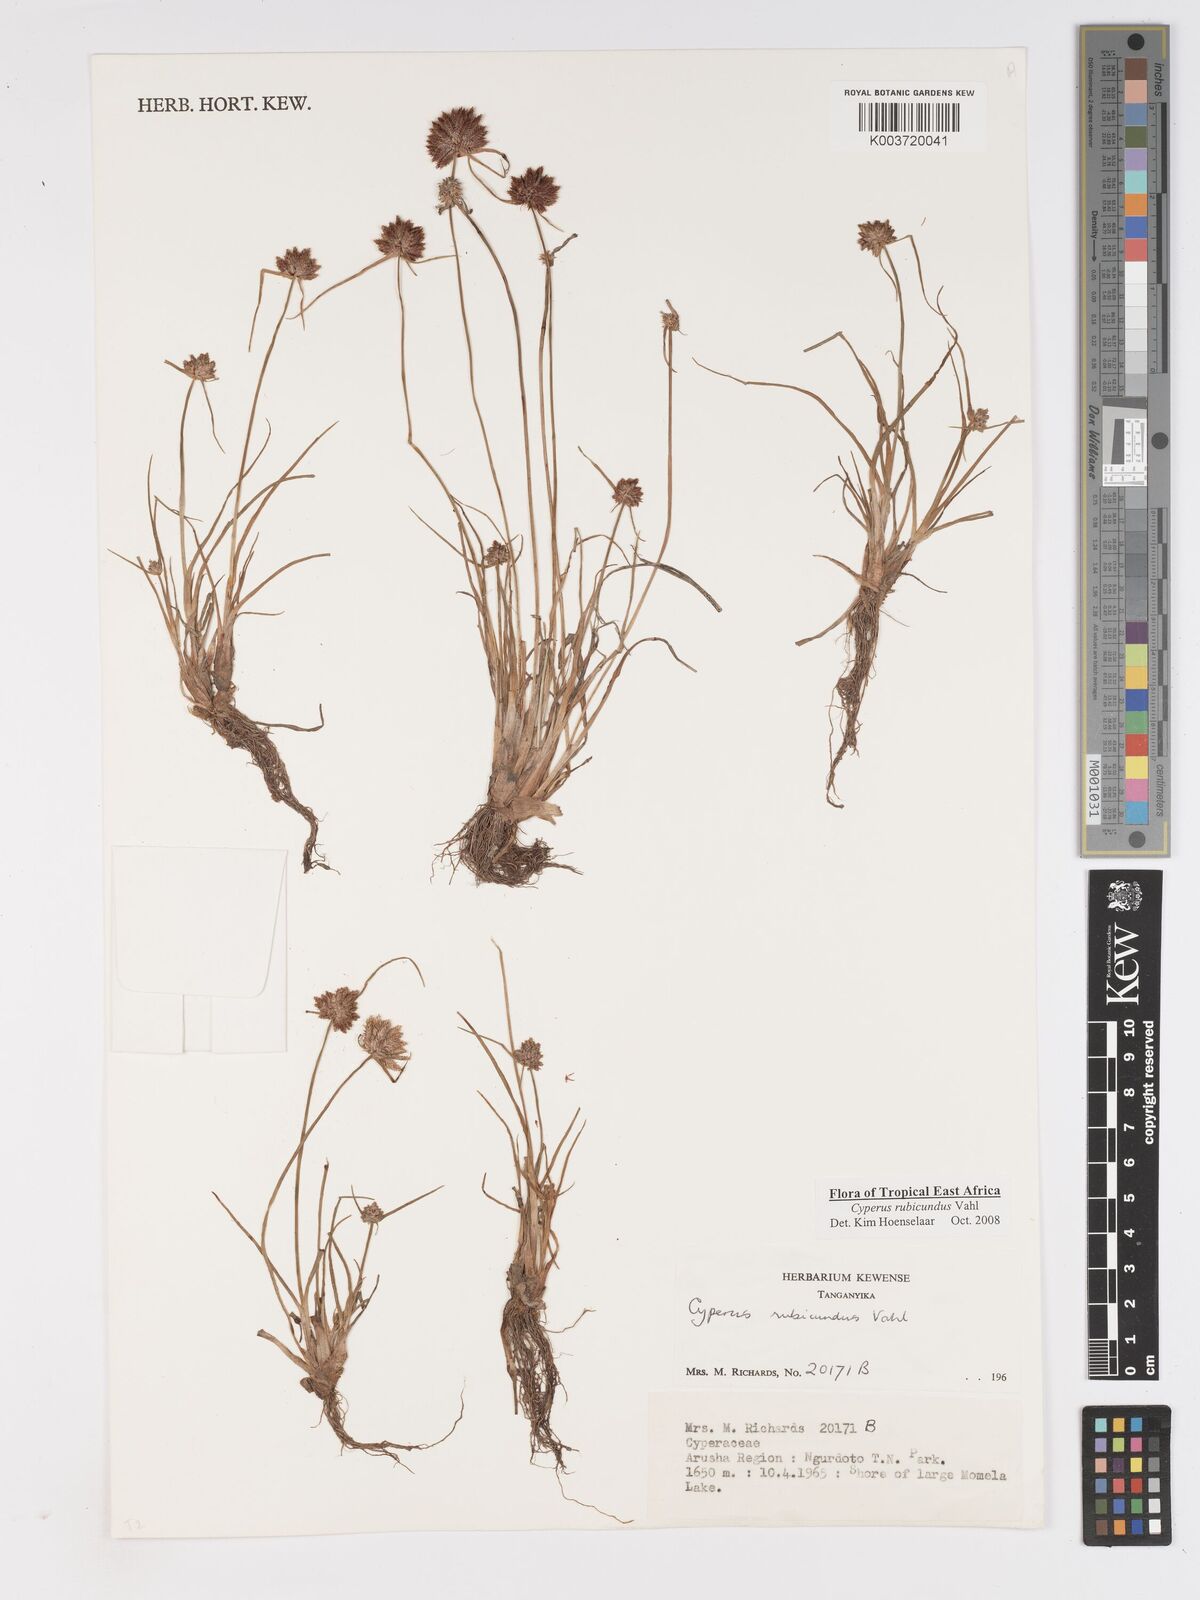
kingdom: Plantae
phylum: Tracheophyta
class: Liliopsida
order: Poales
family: Cyperaceae
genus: Cyperus
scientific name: Cyperus rubicundus
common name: Coco-grass
